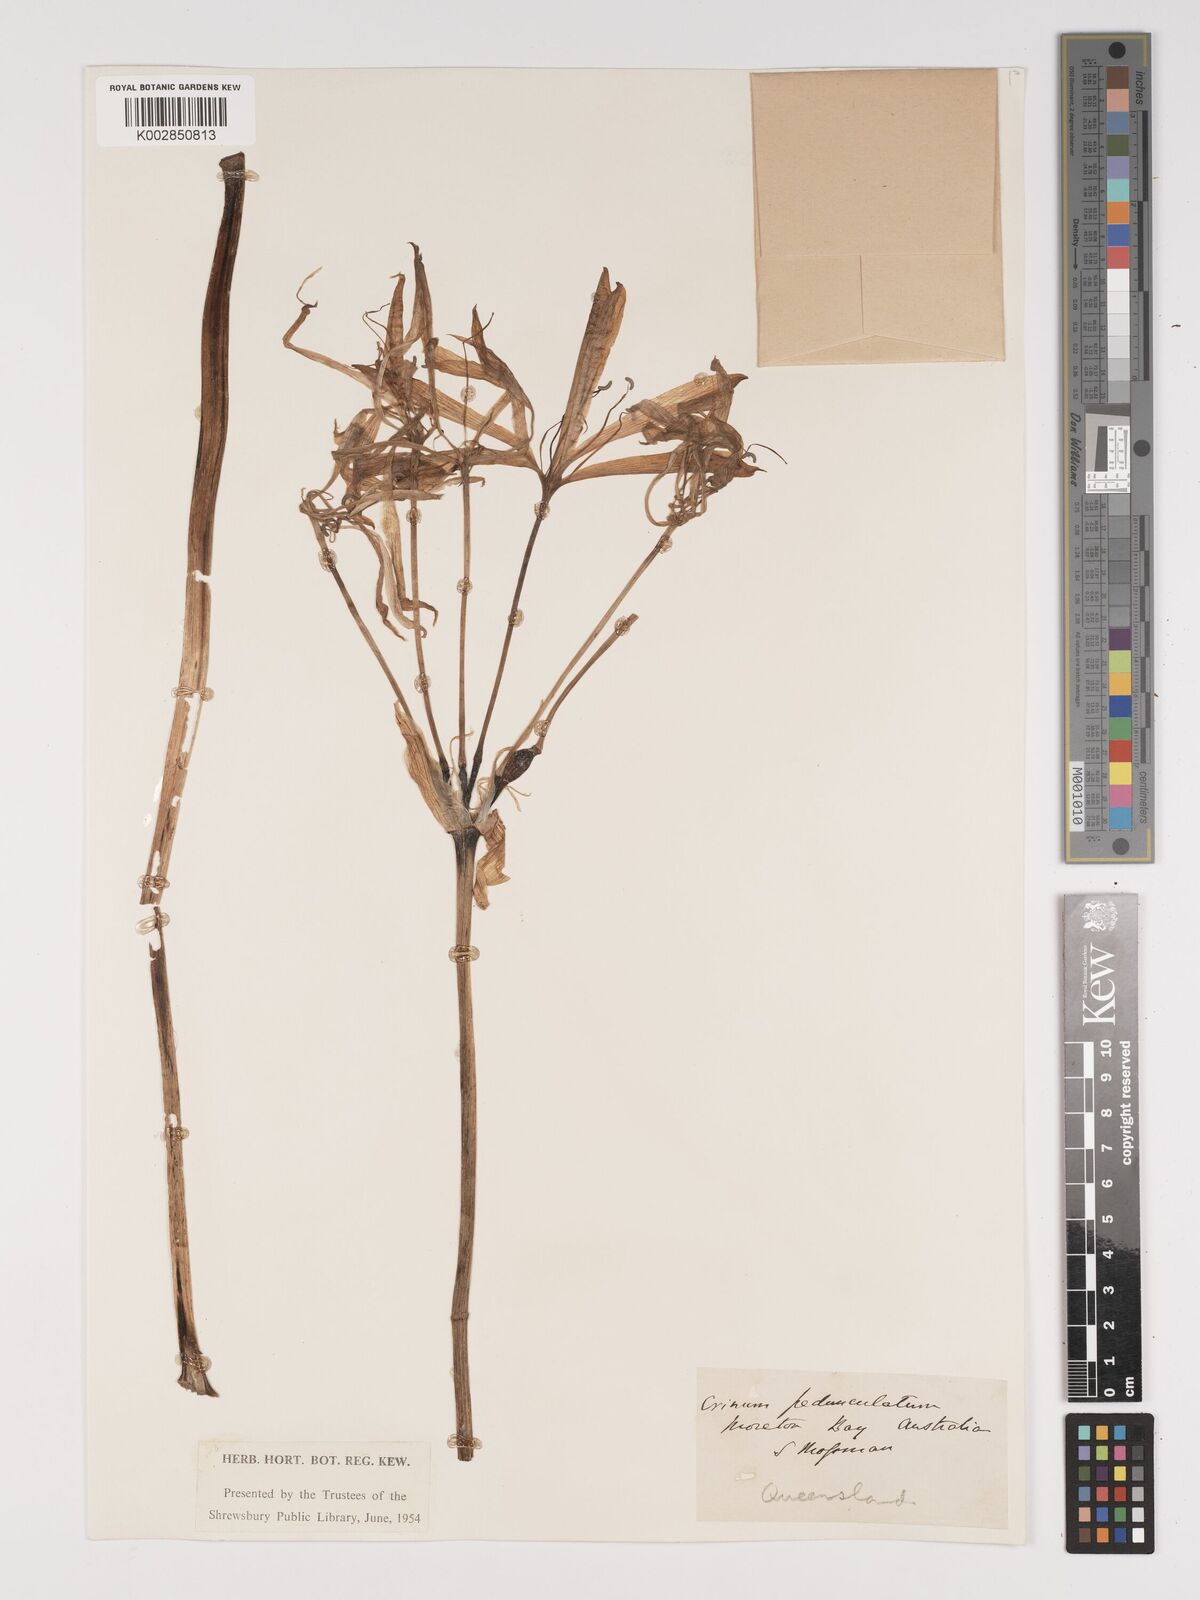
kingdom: Plantae
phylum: Tracheophyta
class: Liliopsida
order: Asparagales
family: Amaryllidaceae
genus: Crinum
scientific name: Crinum arenarium
